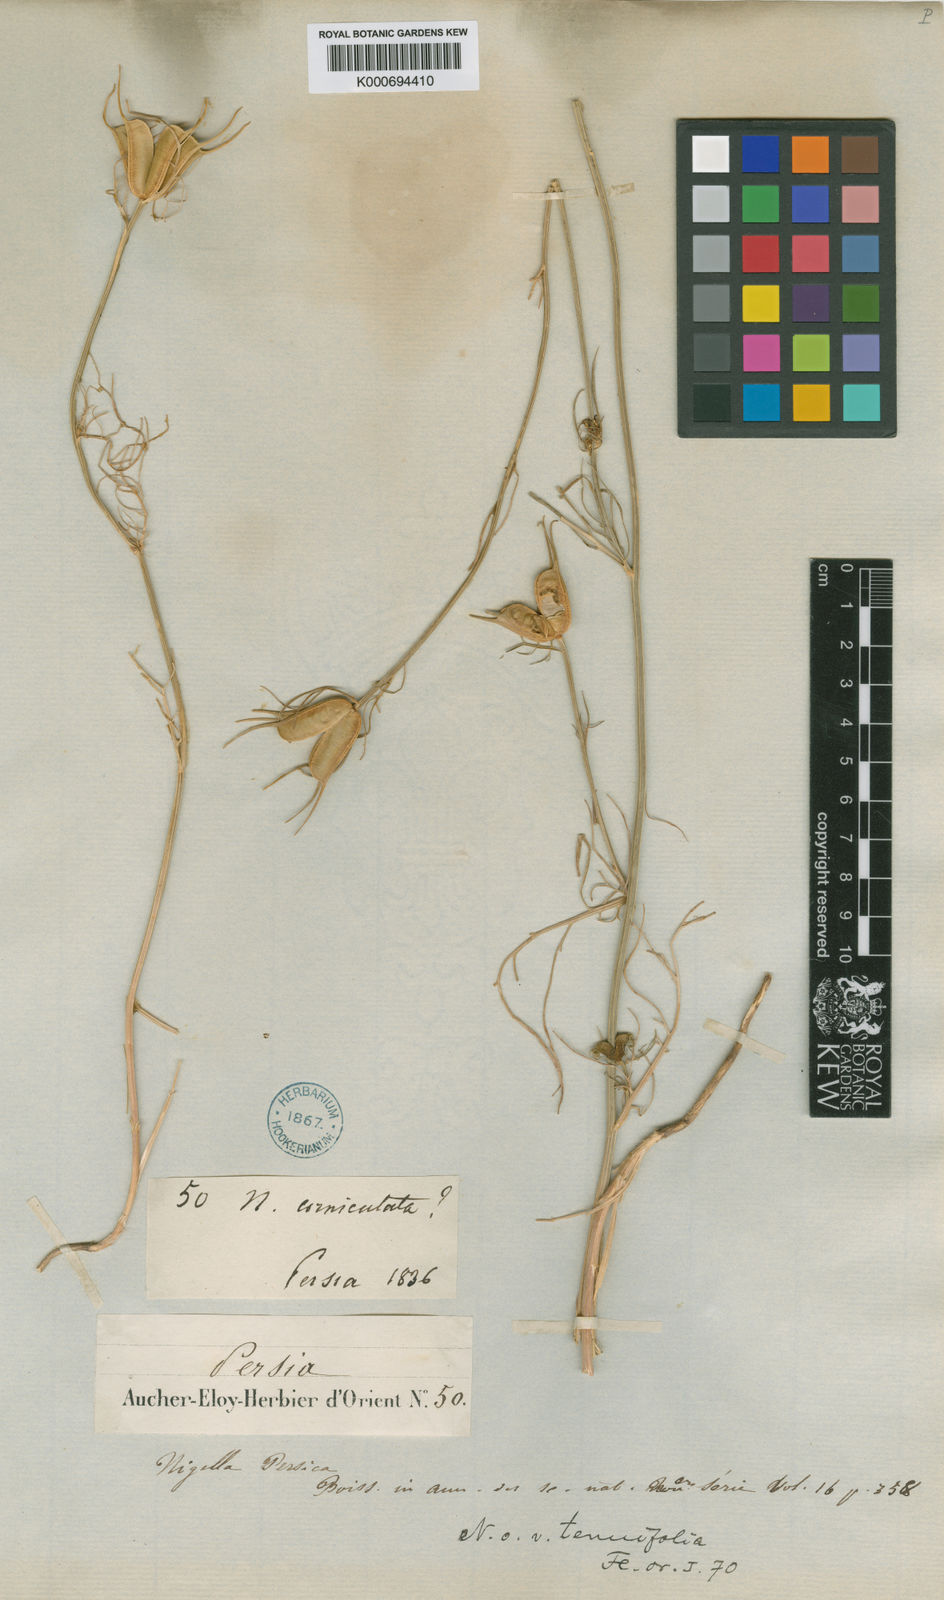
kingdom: Plantae
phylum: Tracheophyta
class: Magnoliopsida
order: Ranunculales
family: Ranunculaceae
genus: Nigella
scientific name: Nigella oxypetala
